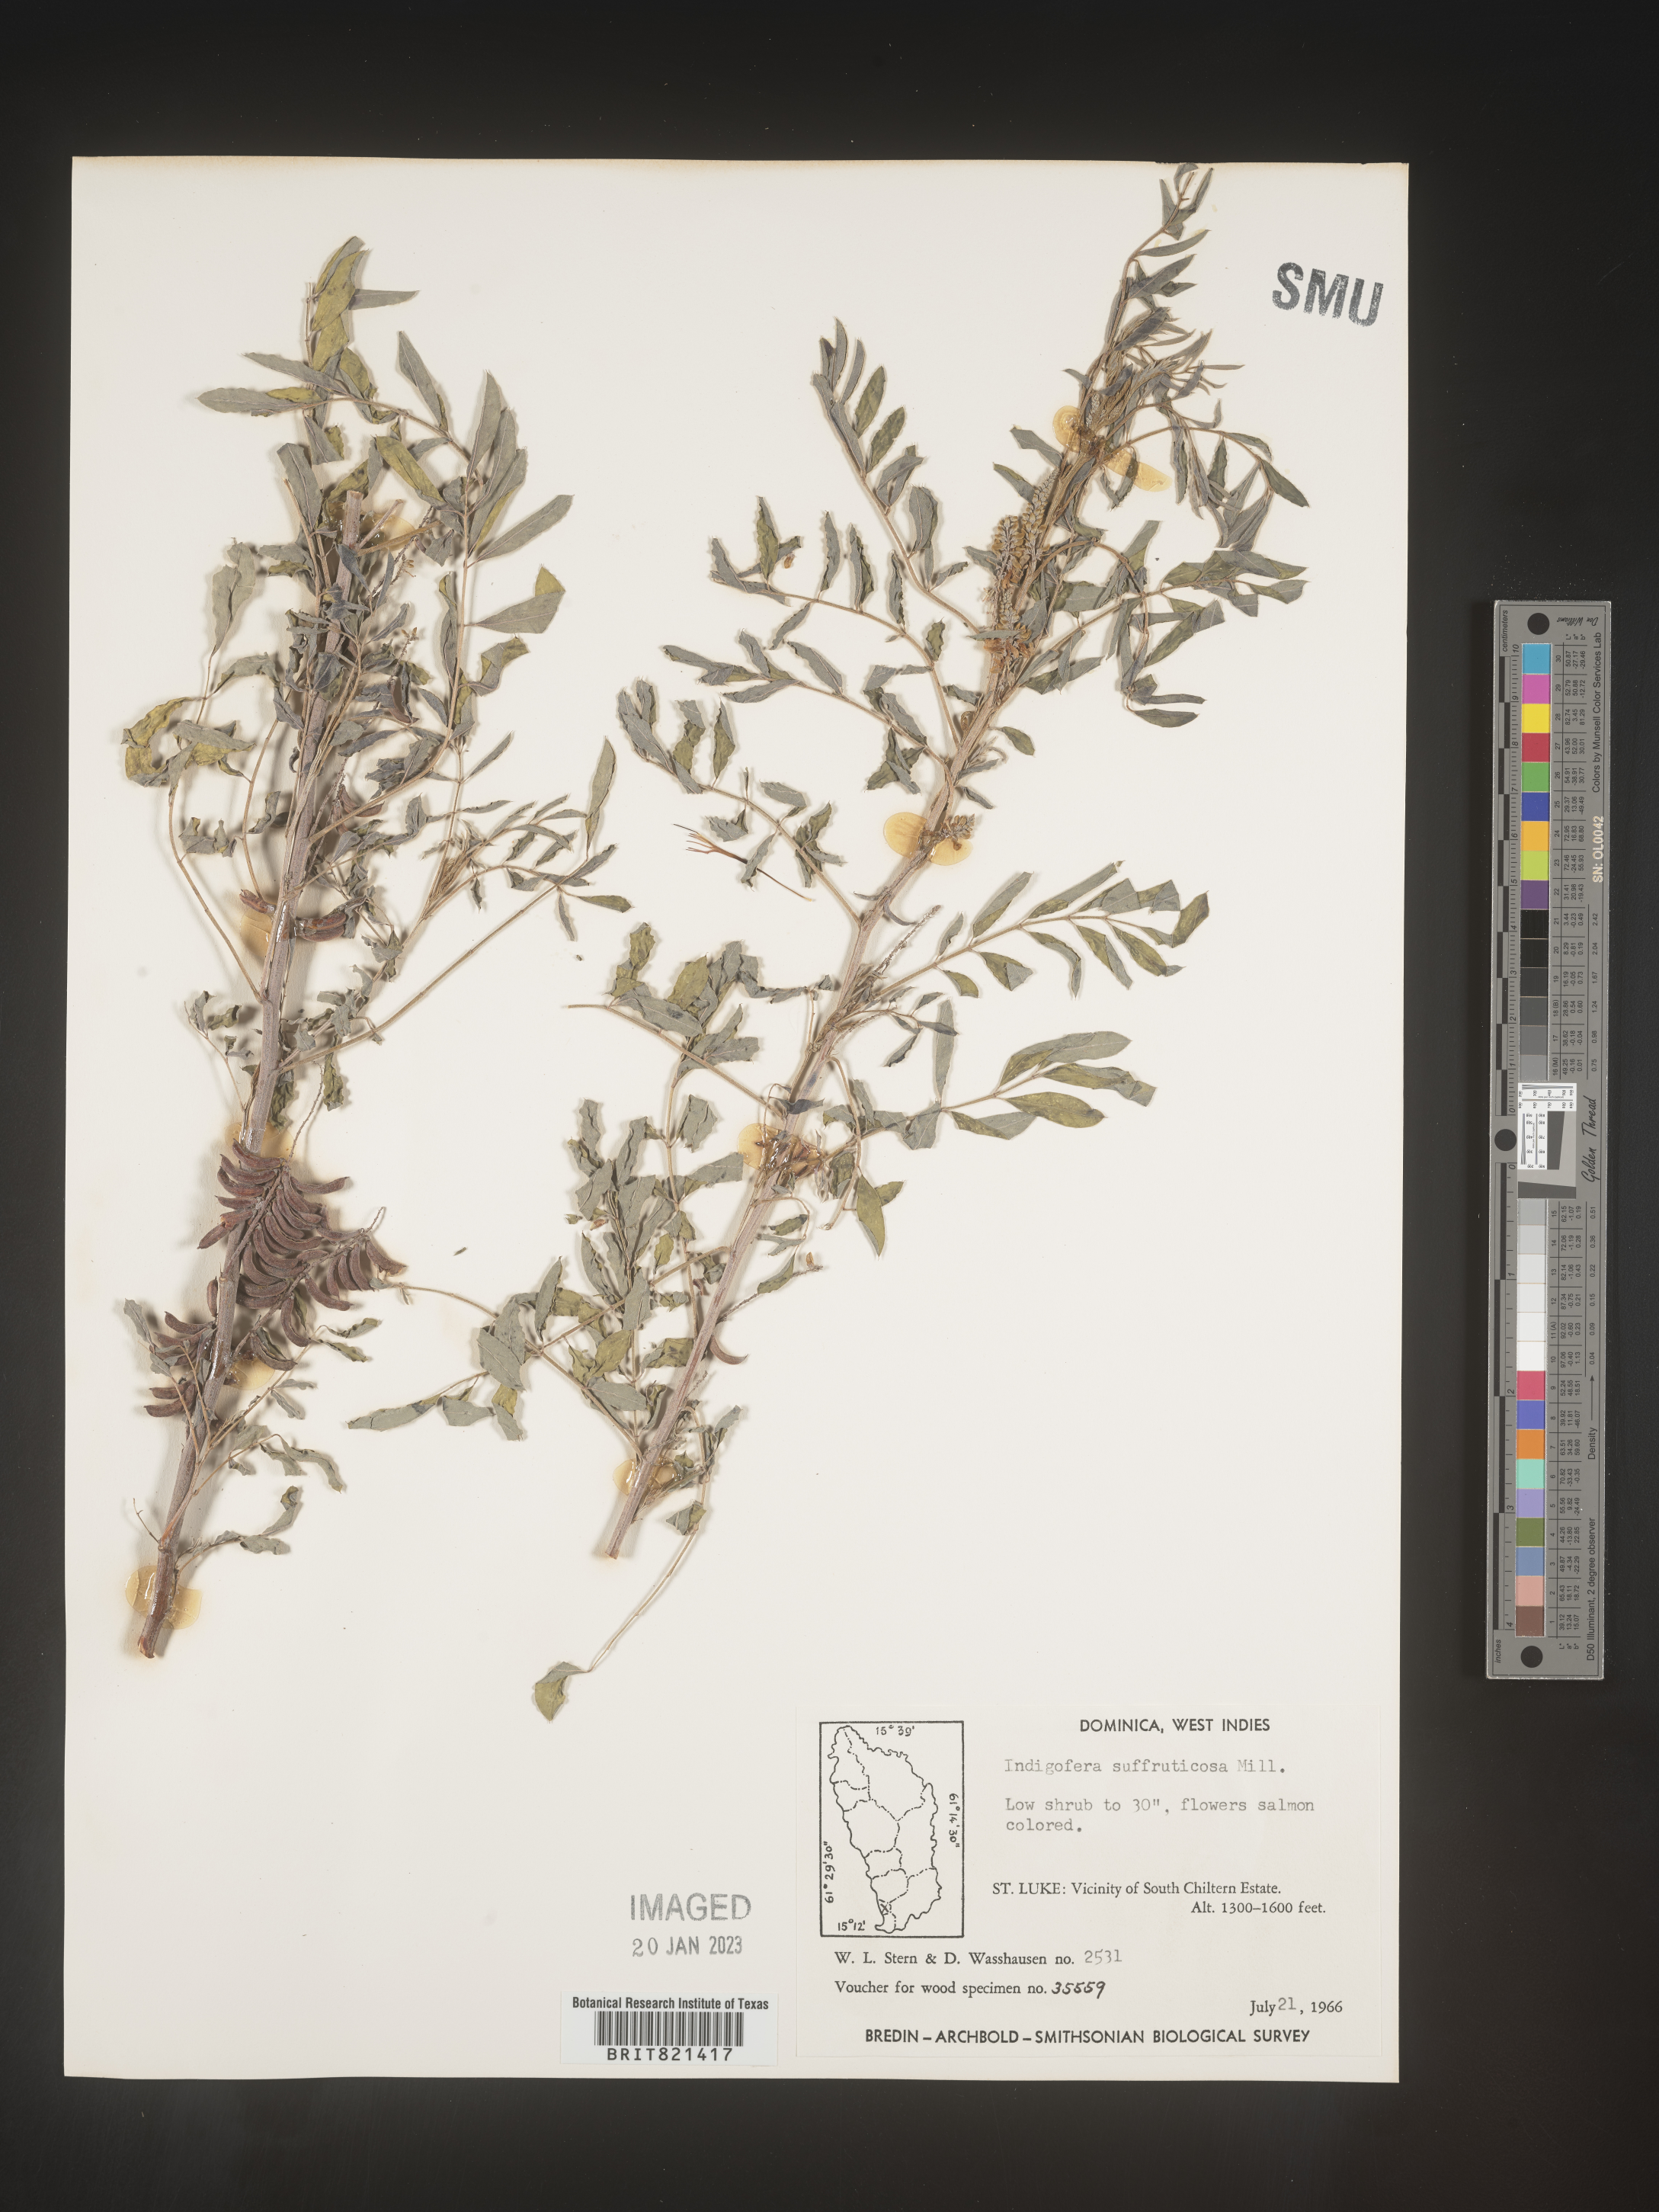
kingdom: Plantae
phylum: Tracheophyta
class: Magnoliopsida
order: Fabales
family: Fabaceae
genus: Indigofera
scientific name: Indigofera
